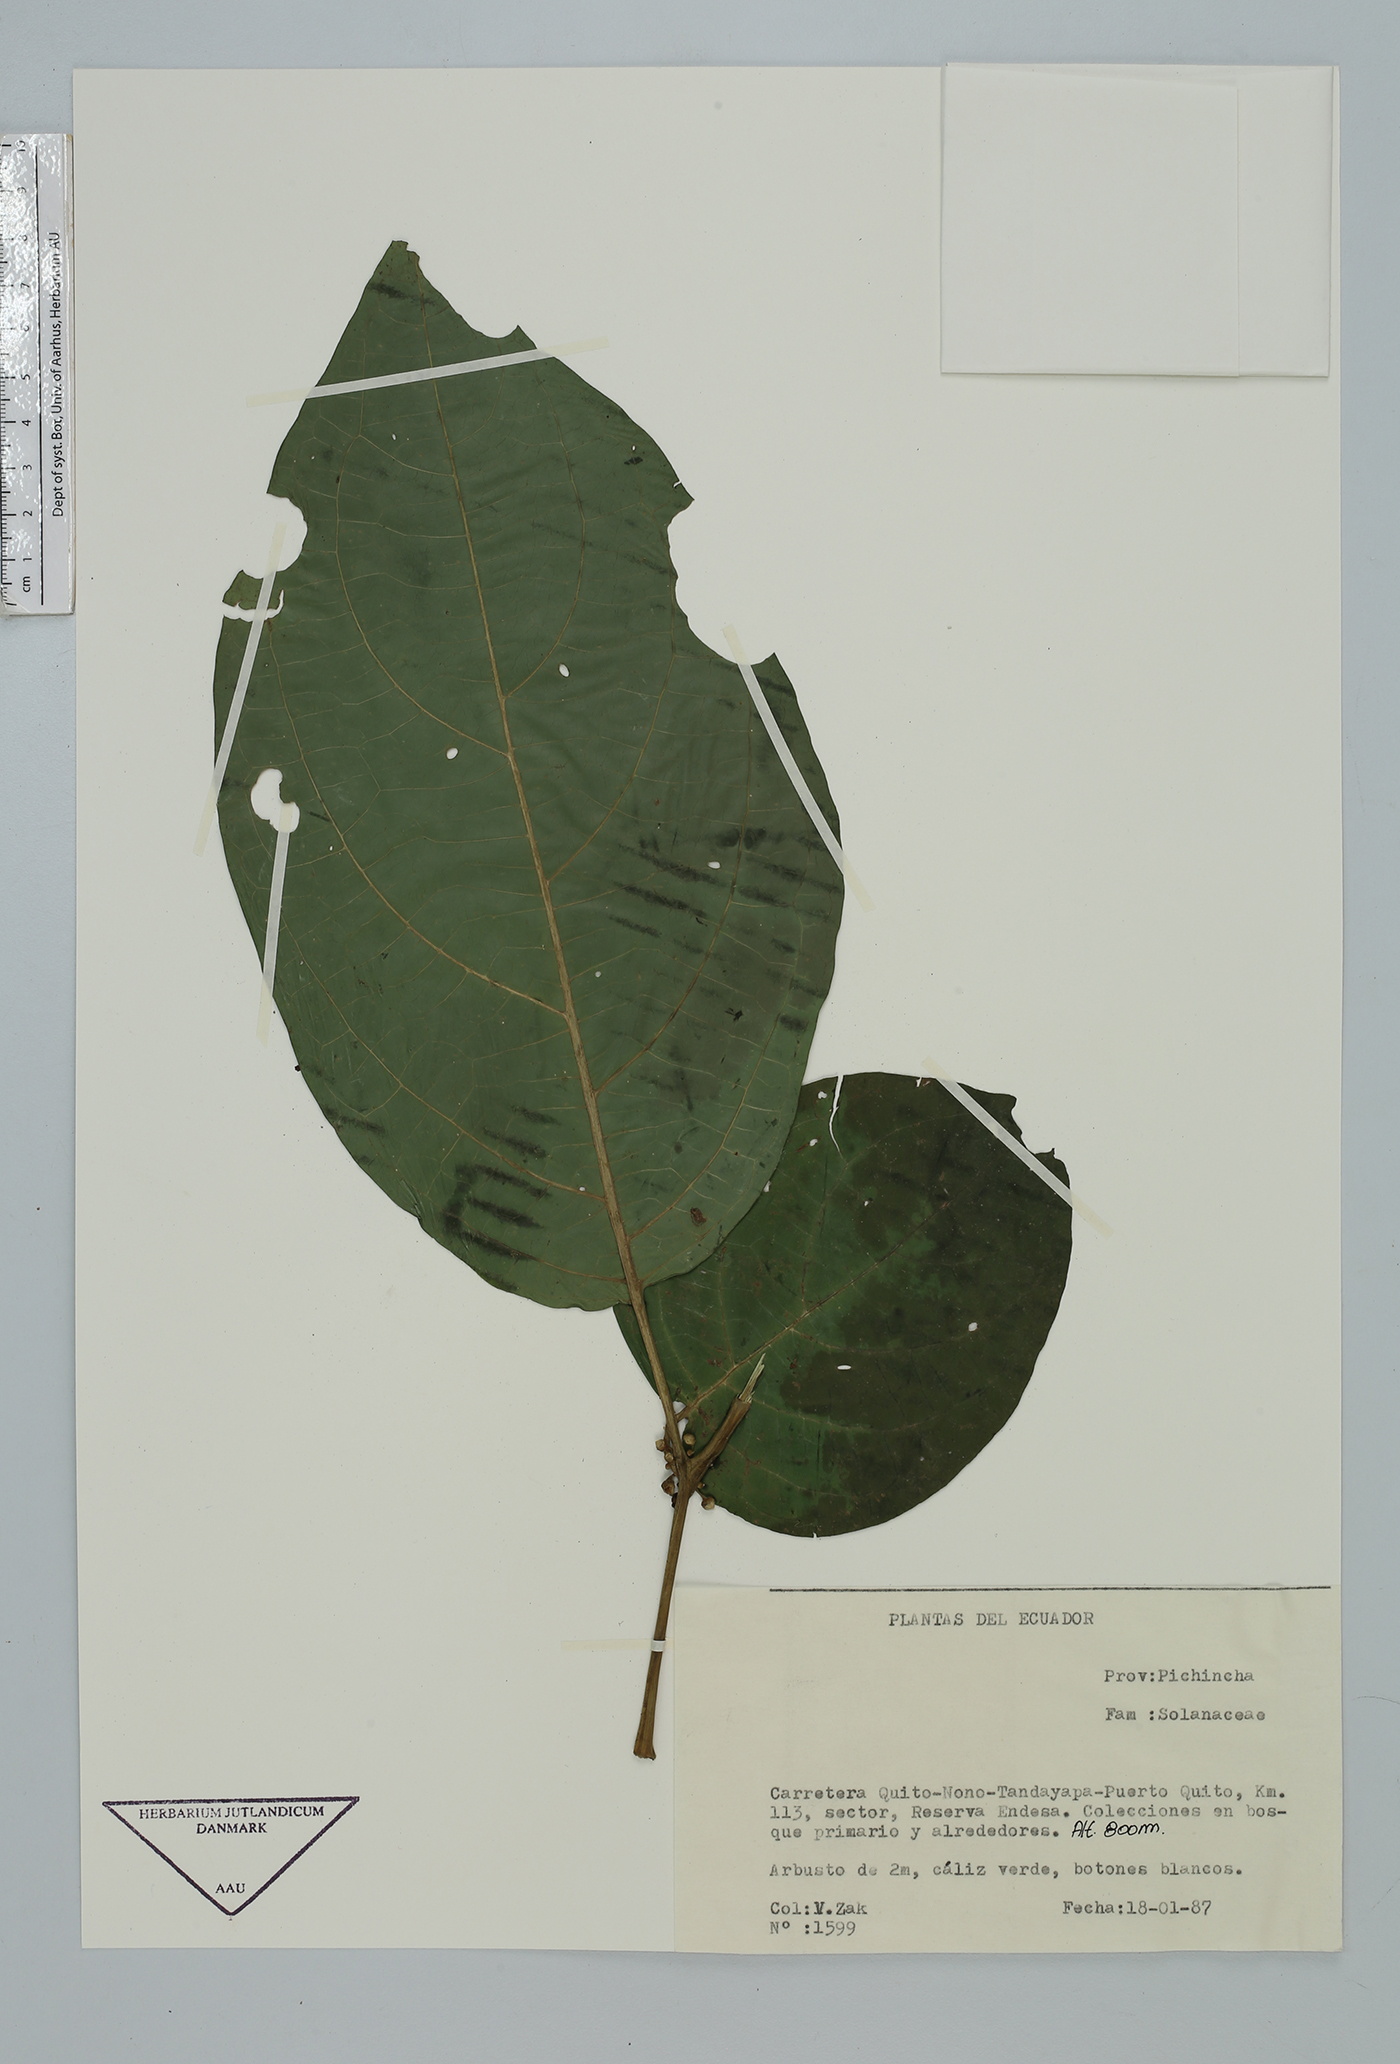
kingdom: Plantae
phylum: Tracheophyta
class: Magnoliopsida
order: Solanales
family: Solanaceae
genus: Cuatresia
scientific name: Cuatresia
